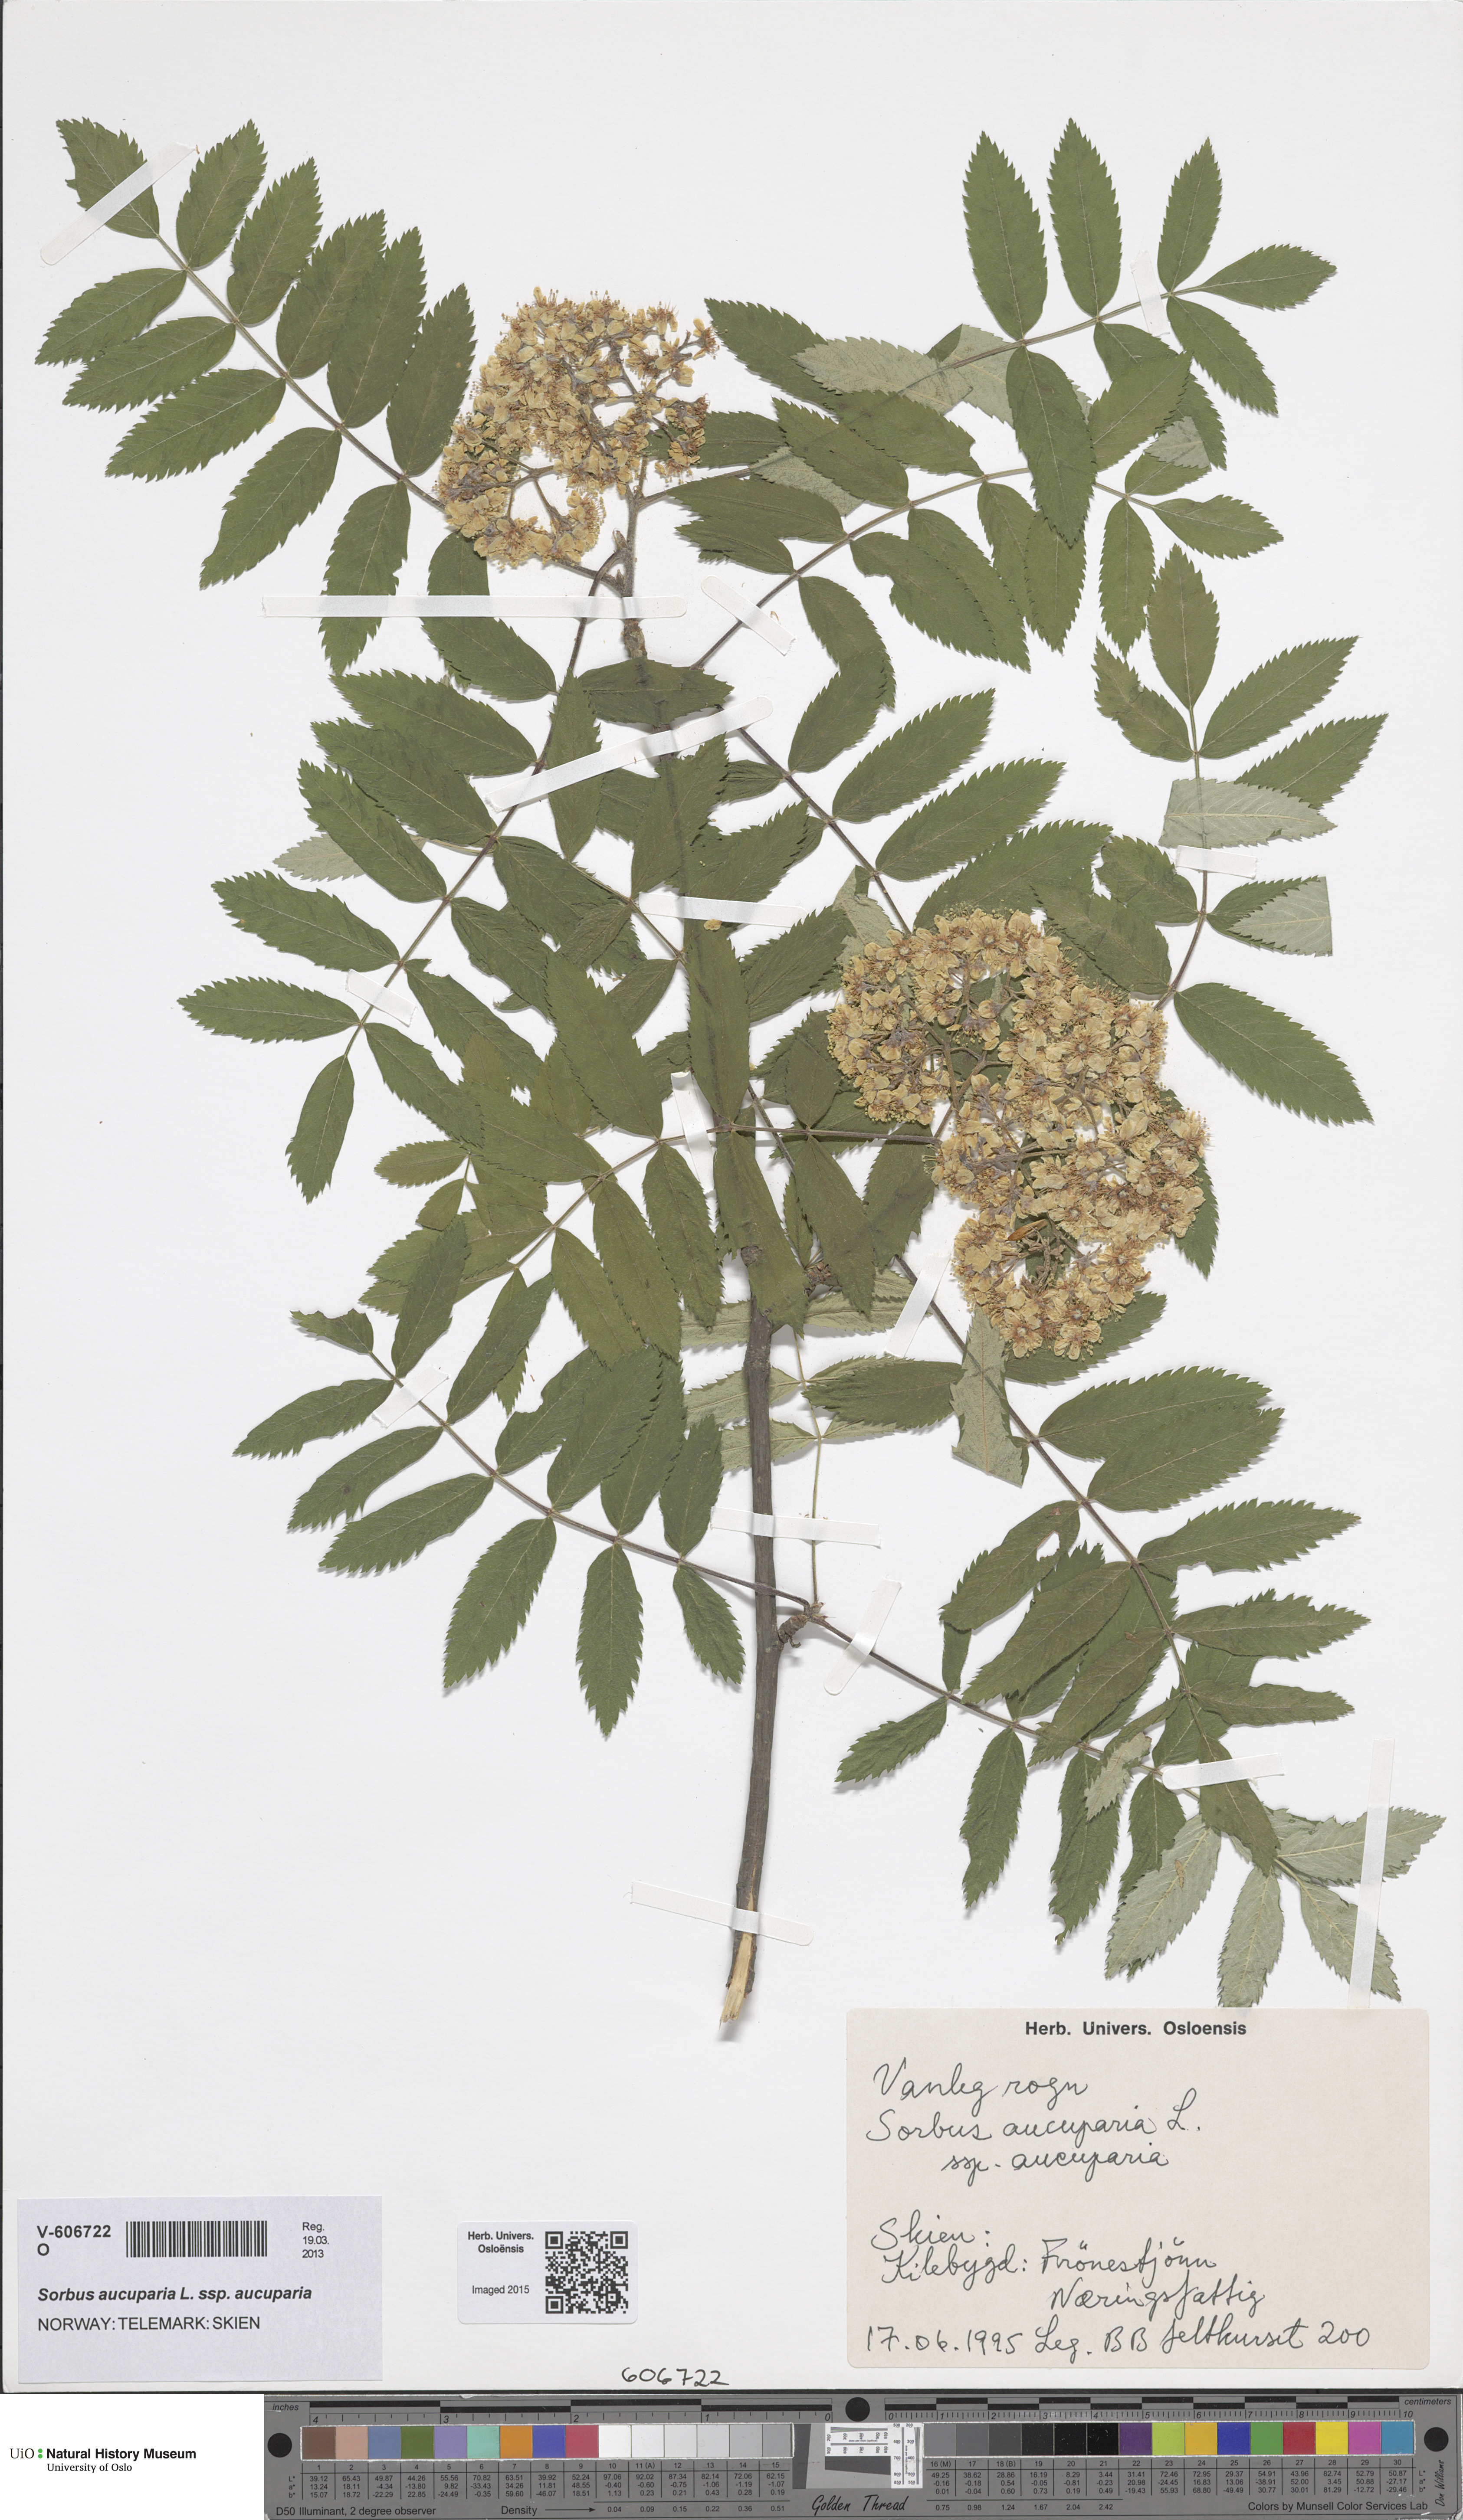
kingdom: Plantae
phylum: Tracheophyta
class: Magnoliopsida
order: Rosales
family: Rosaceae
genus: Sorbus
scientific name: Sorbus aucuparia
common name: Rowan
